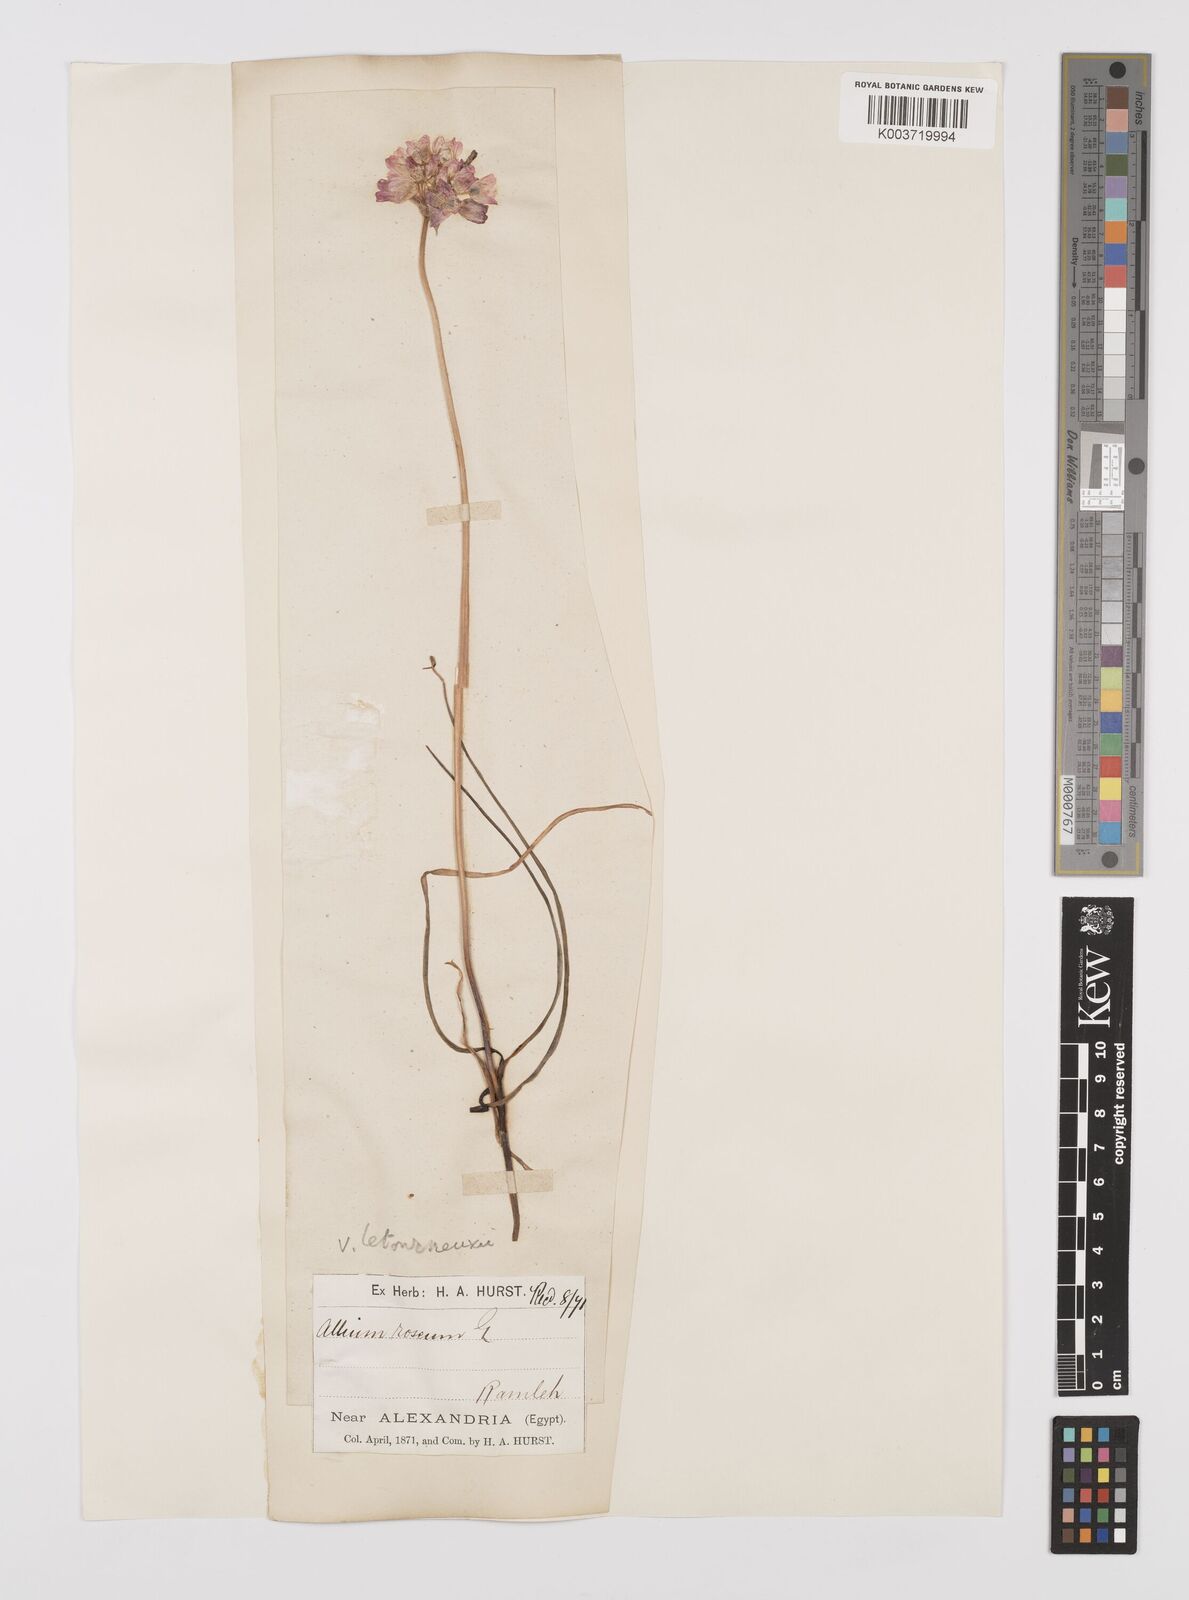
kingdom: Plantae
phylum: Tracheophyta
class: Liliopsida
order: Asparagales
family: Amaryllidaceae
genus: Allium
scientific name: Allium roseum
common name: Rosy garlic
